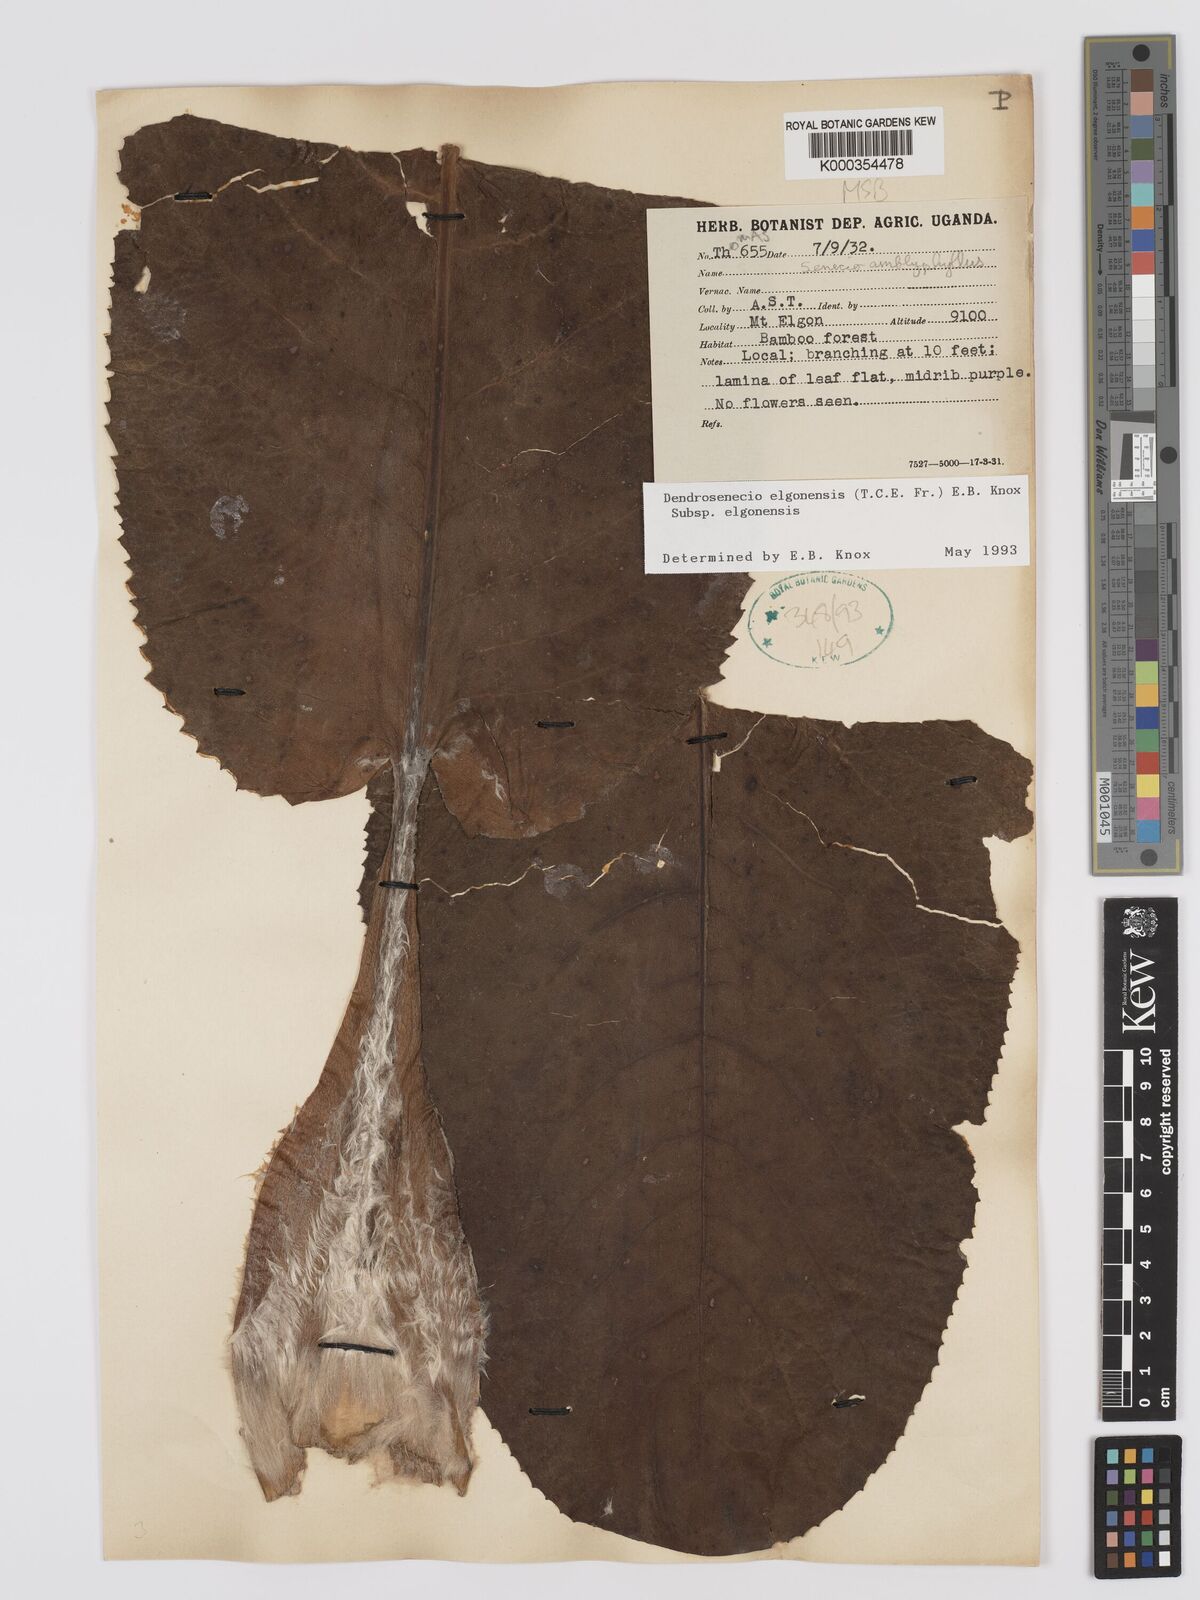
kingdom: Plantae
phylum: Tracheophyta
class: Magnoliopsida
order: Asterales
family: Asteraceae
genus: Dendrosenecio
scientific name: Dendrosenecio elgonensis
